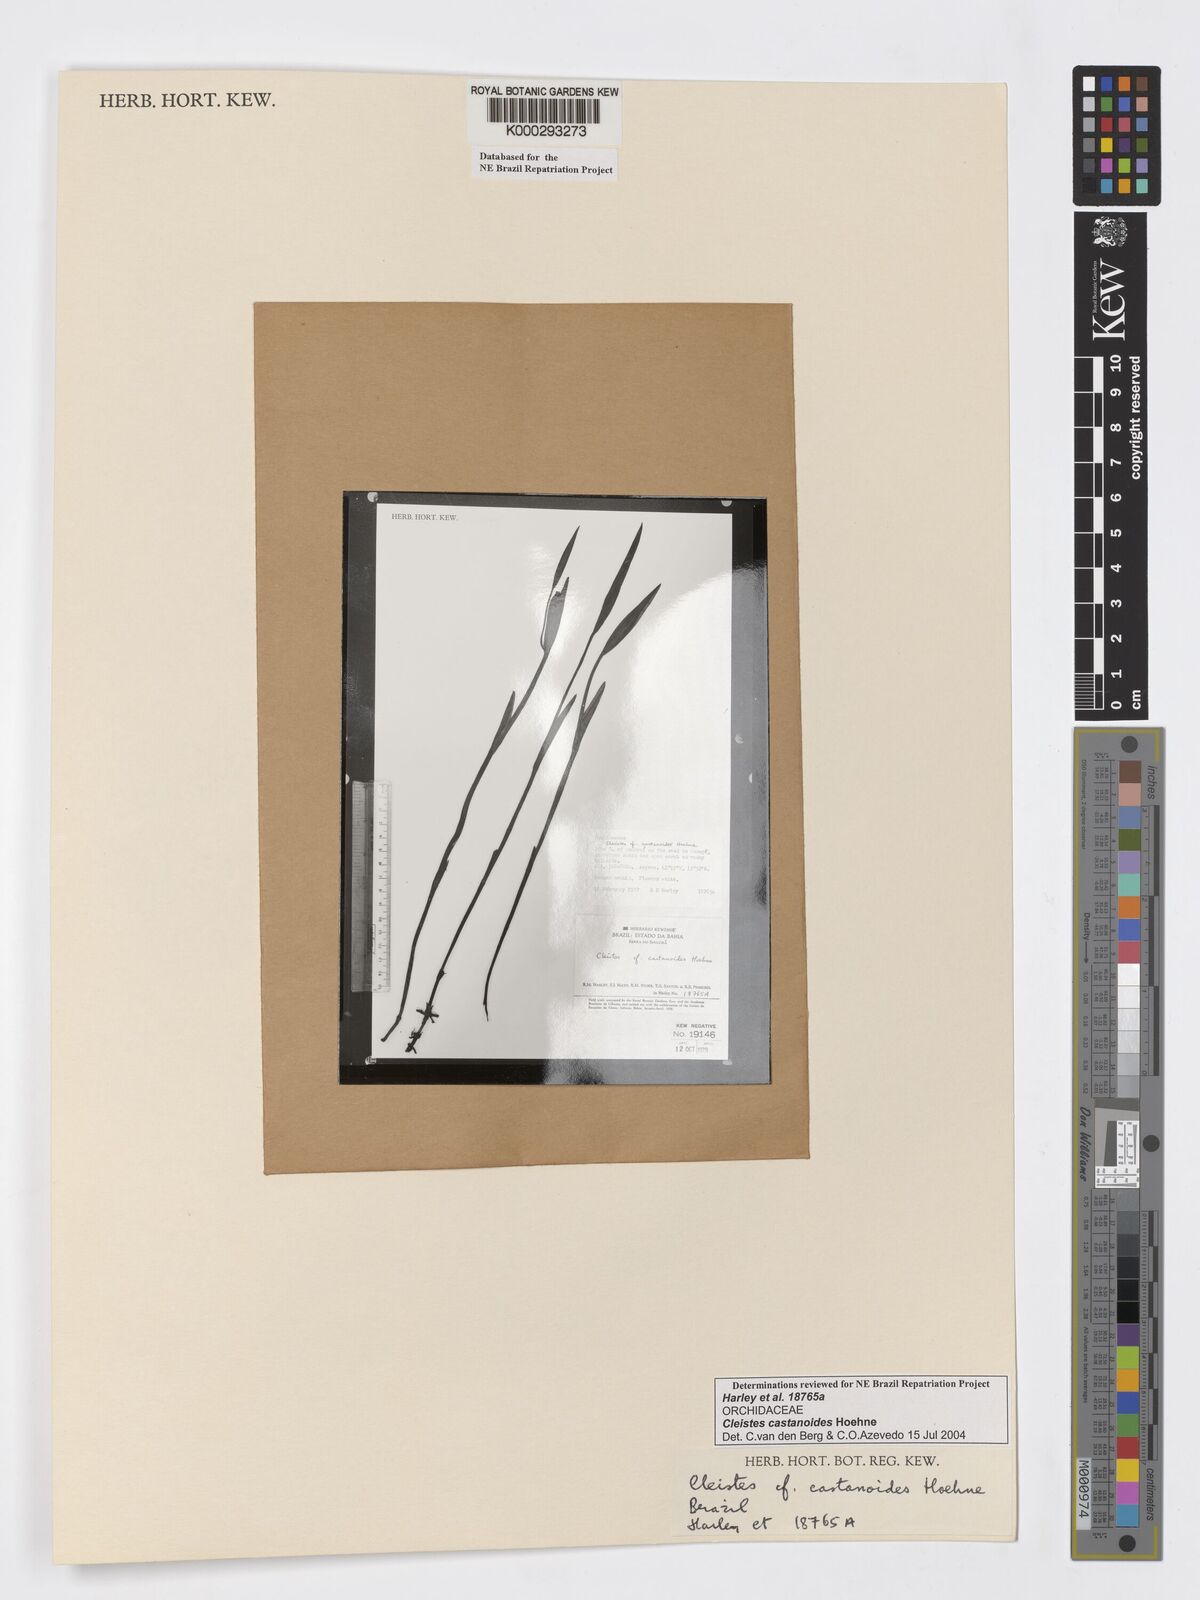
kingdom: Plantae
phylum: Tracheophyta
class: Liliopsida
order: Asparagales
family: Orchidaceae
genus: Cleistes
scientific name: Cleistes
